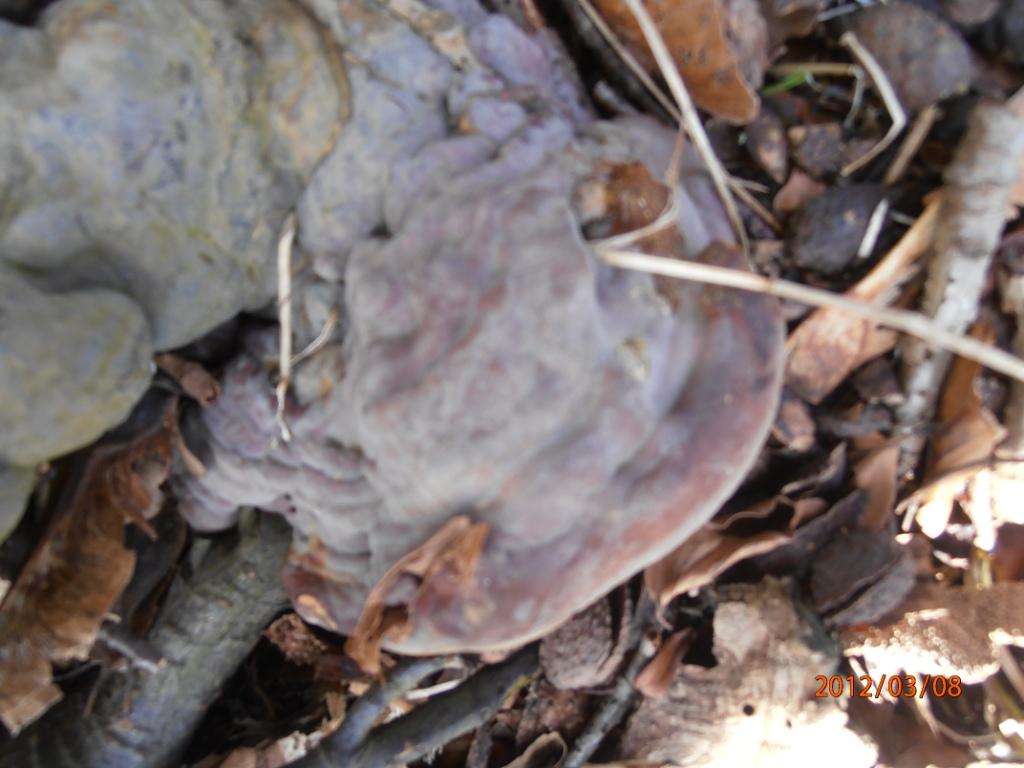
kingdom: Fungi
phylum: Basidiomycota
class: Agaricomycetes
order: Polyporales
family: Polyporaceae
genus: Ganoderma
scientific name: Ganoderma pfeifferi
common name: kobberrød lakporesvamp
